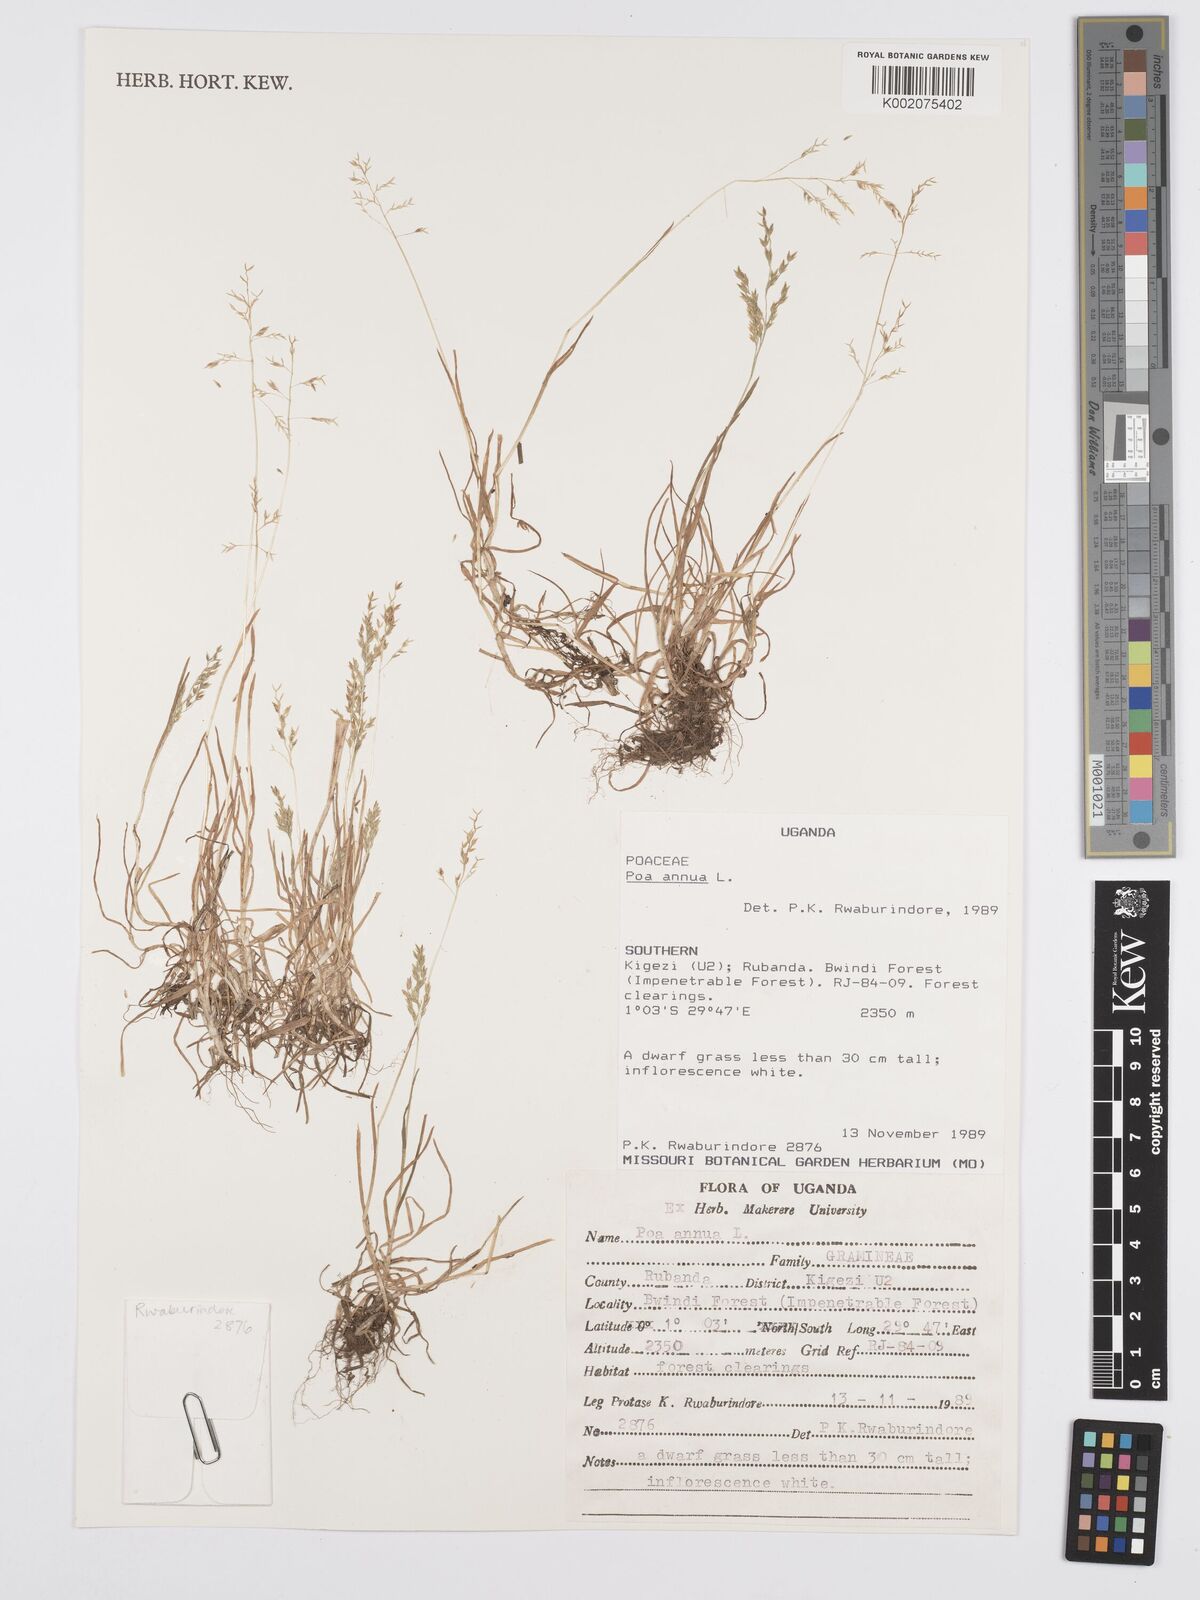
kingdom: Plantae
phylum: Tracheophyta
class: Liliopsida
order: Poales
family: Poaceae
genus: Poa
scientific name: Poa annua
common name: Annual bluegrass
